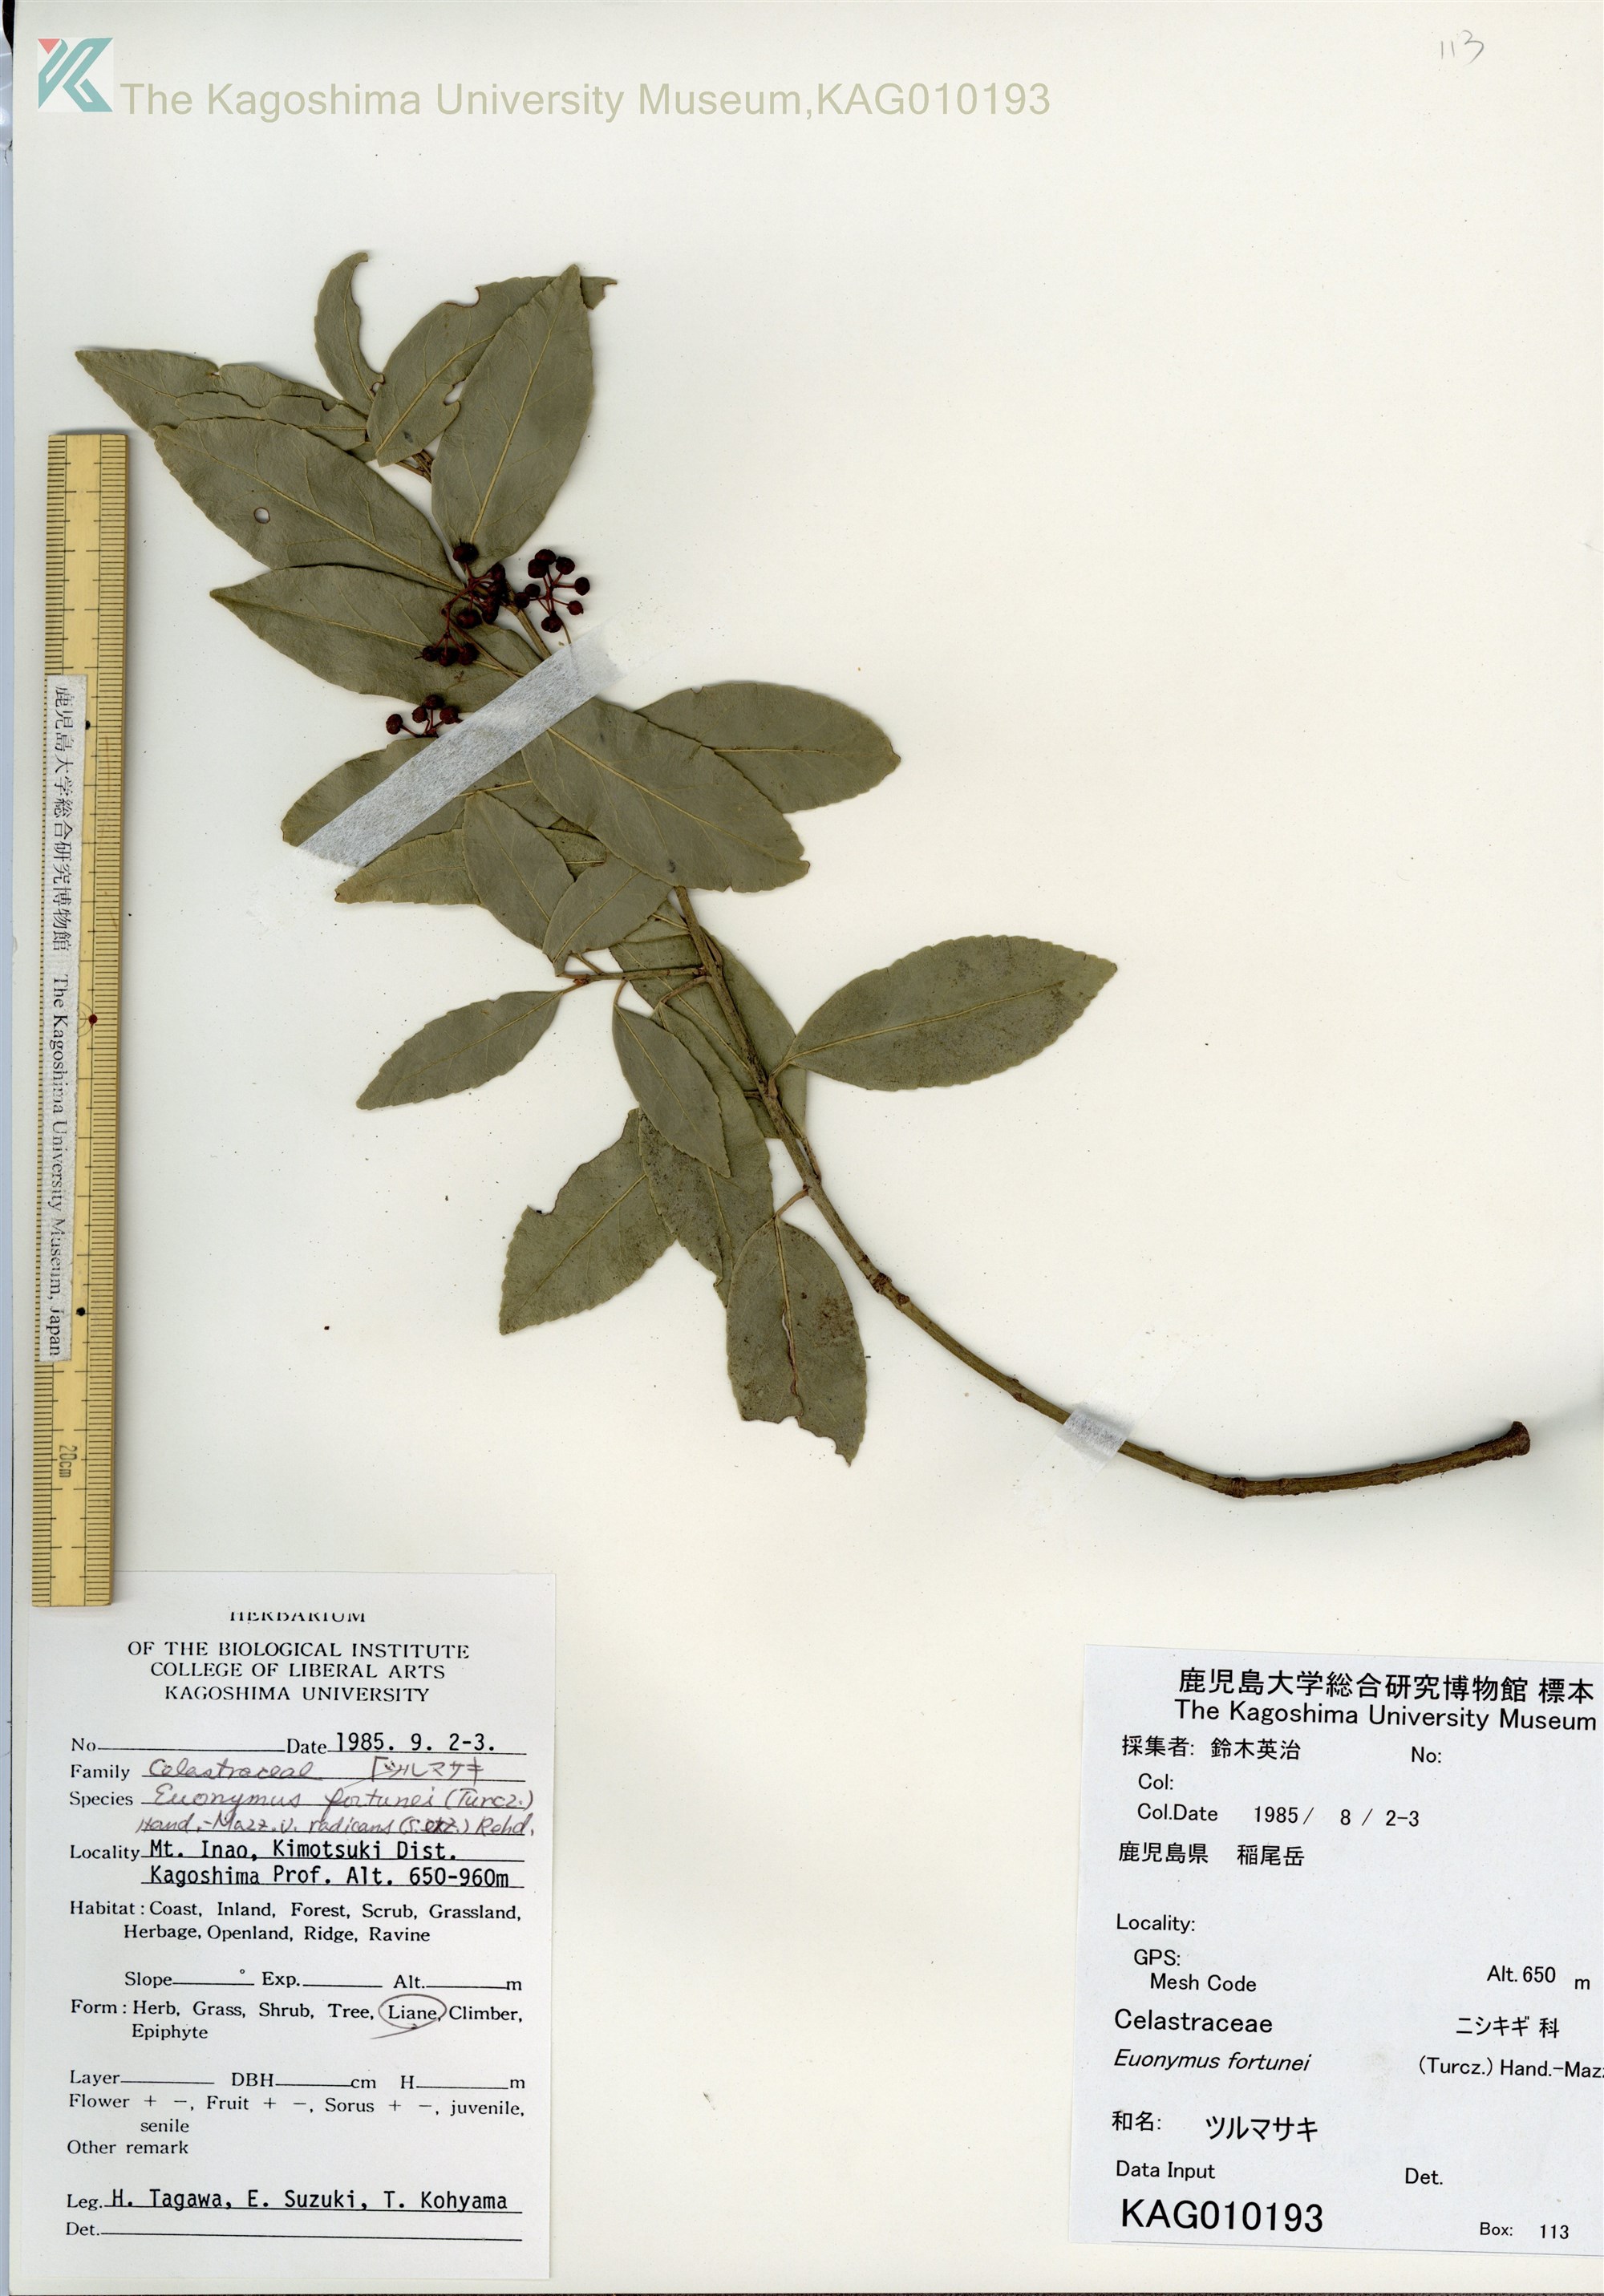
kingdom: Plantae
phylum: Tracheophyta
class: Magnoliopsida
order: Celastrales
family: Celastraceae
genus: Euonymus
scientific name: Euonymus fortunei
